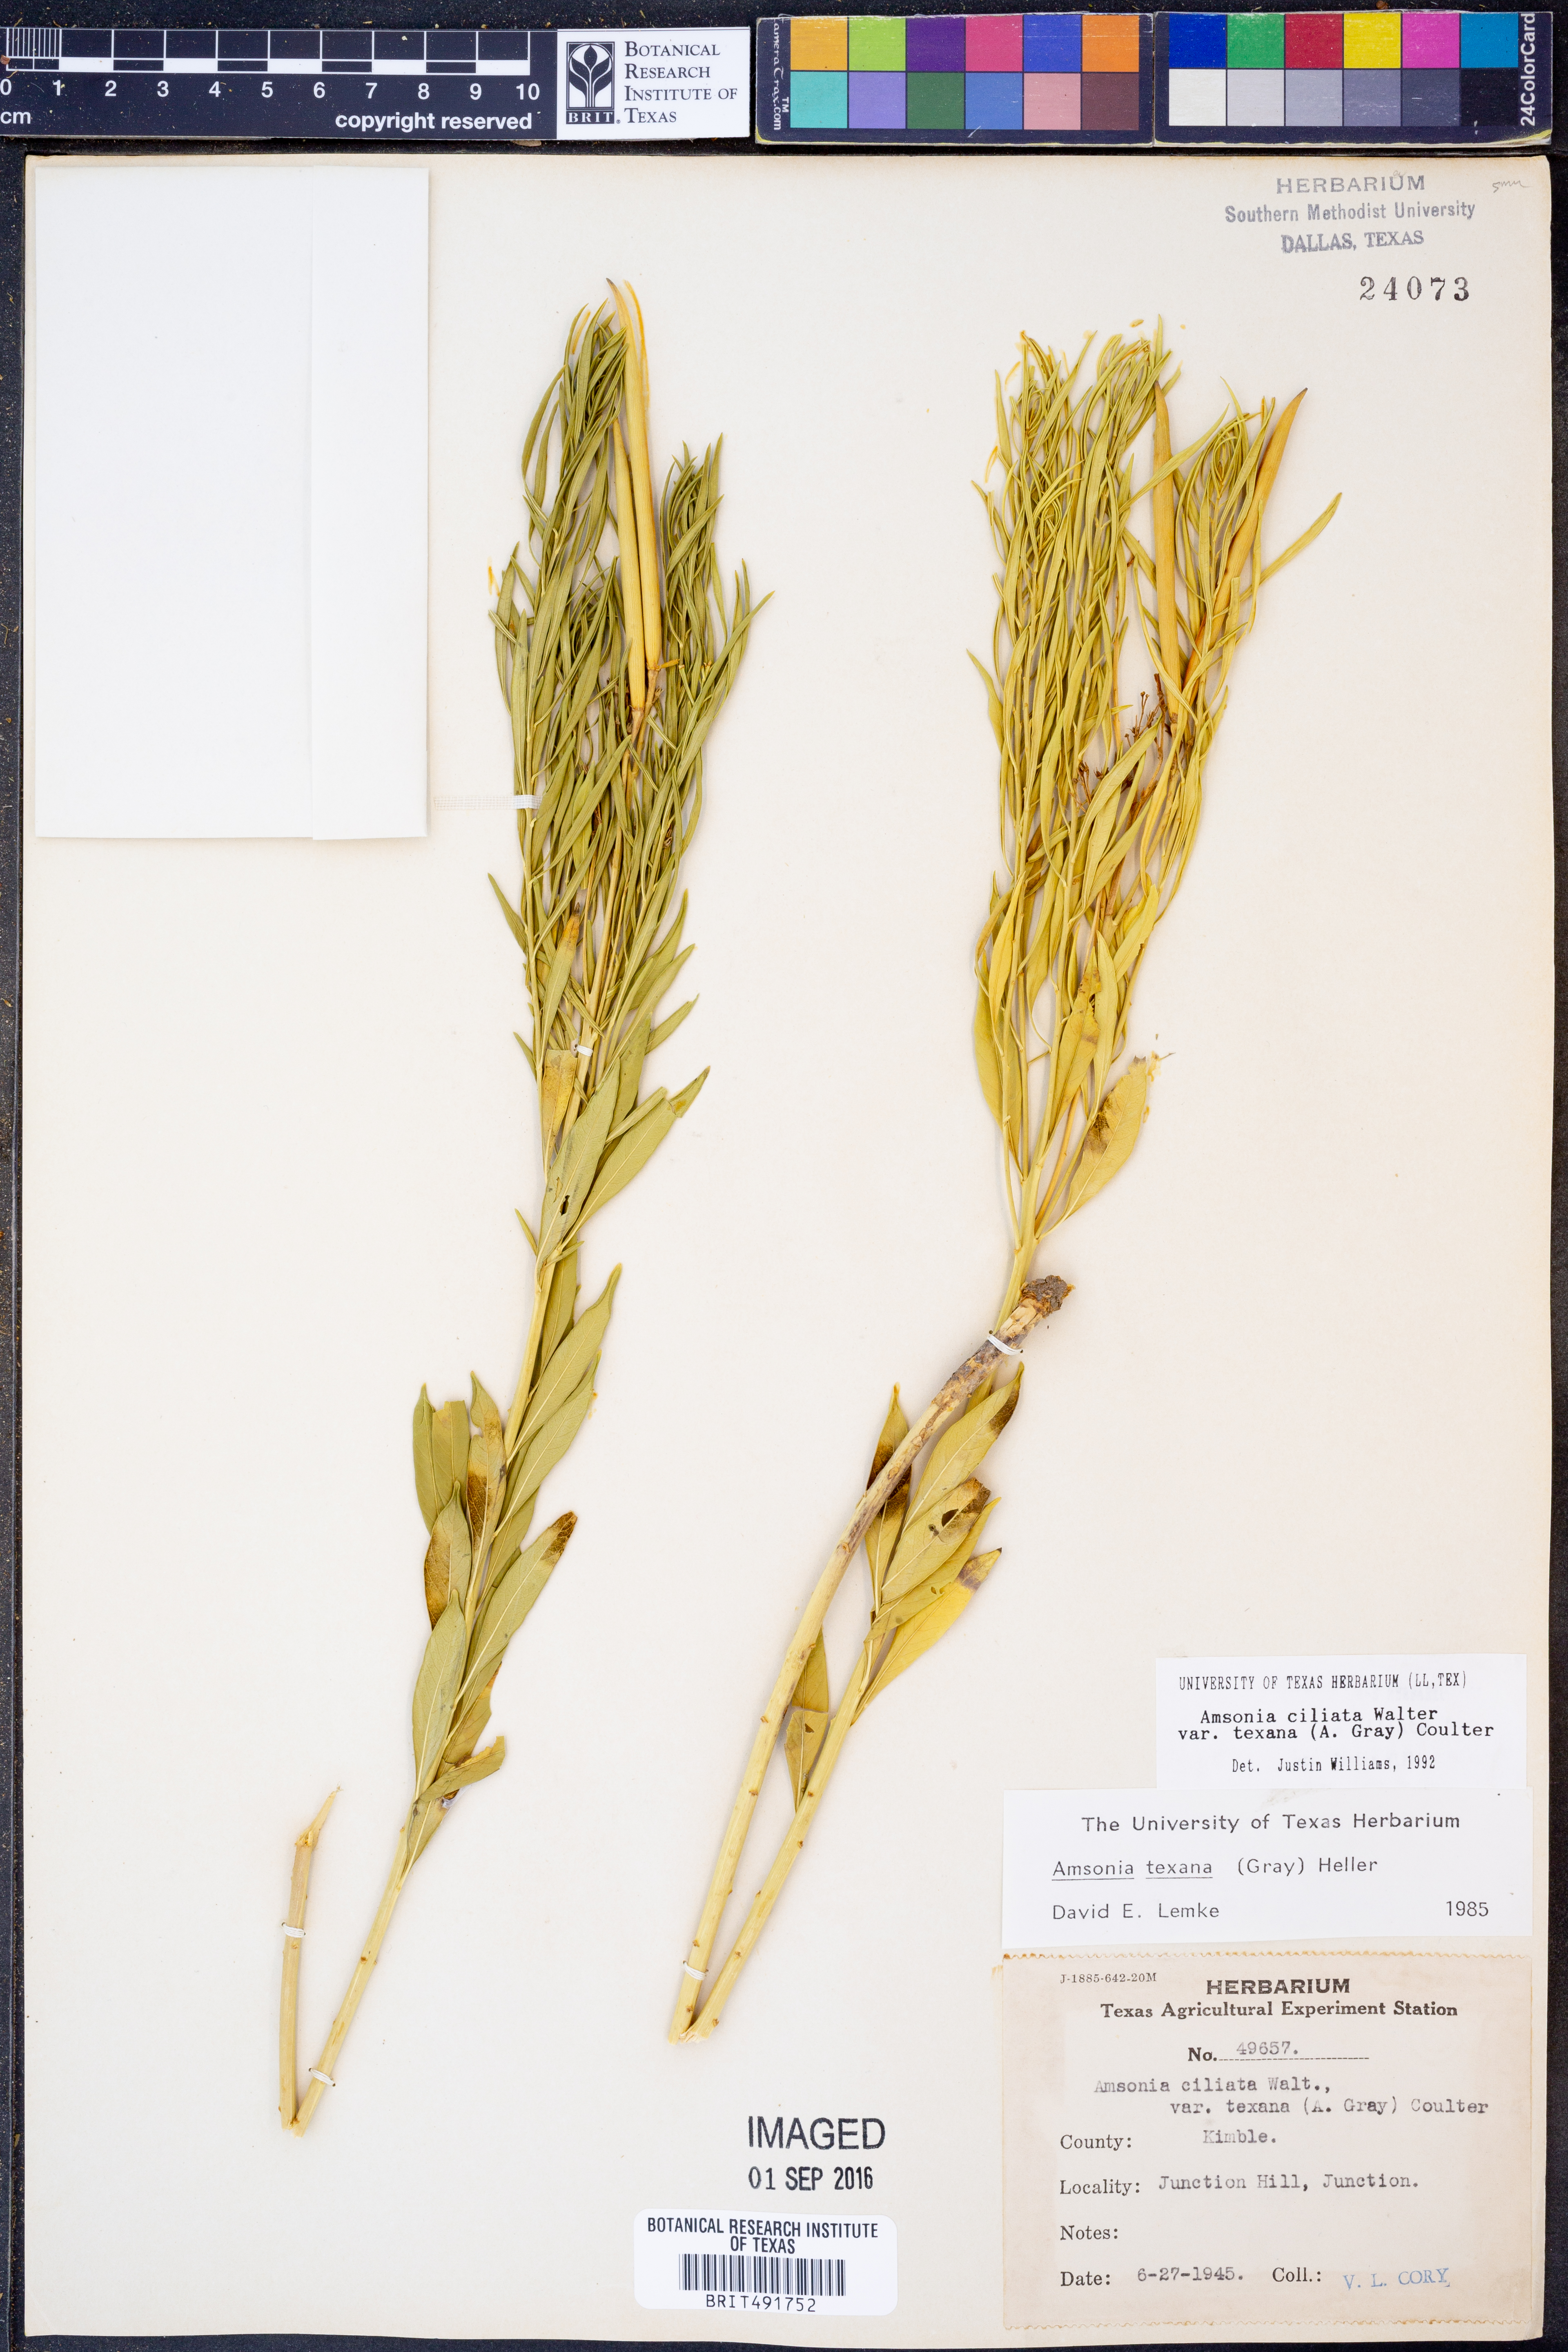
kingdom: Plantae
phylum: Tracheophyta
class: Magnoliopsida
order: Gentianales
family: Apocynaceae
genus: Amsonia
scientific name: Amsonia ciliata
